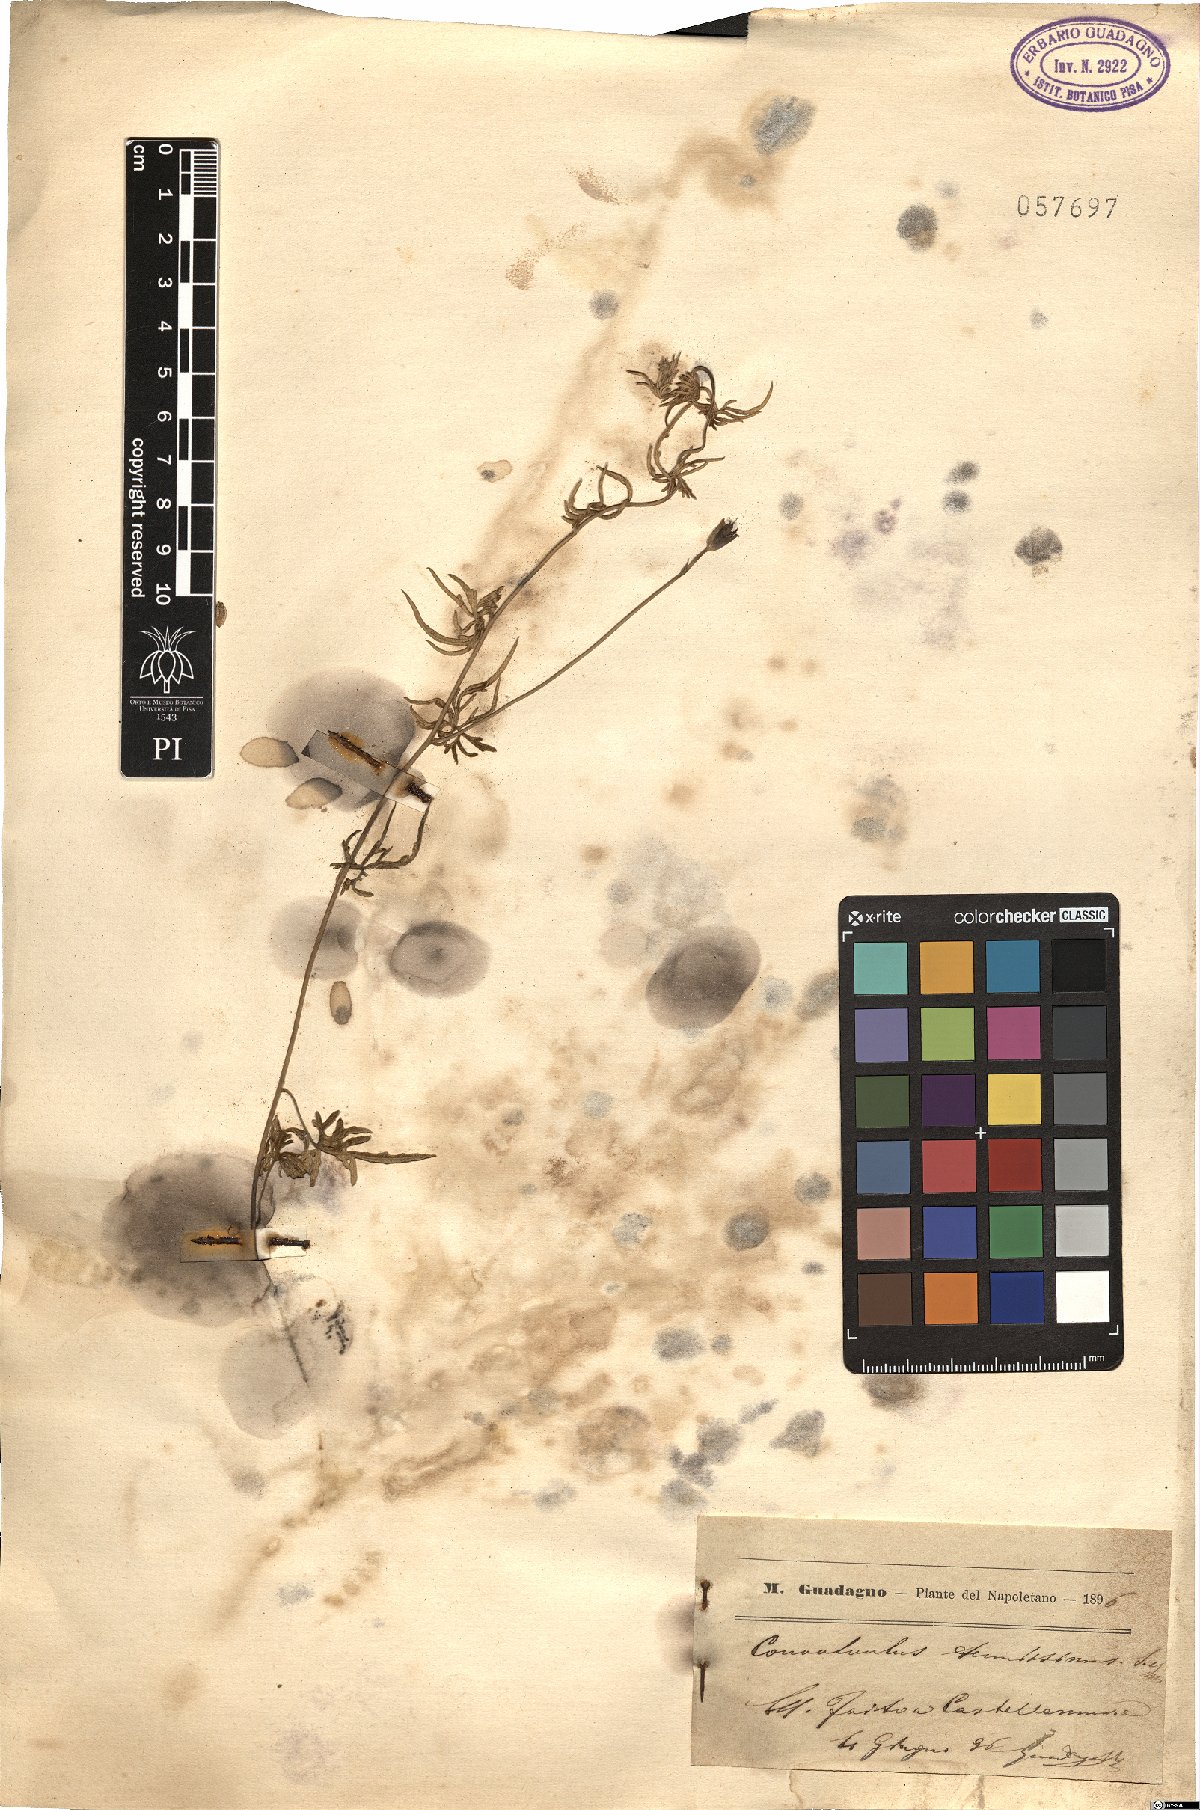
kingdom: Plantae
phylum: Tracheophyta
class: Magnoliopsida
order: Solanales
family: Convolvulaceae
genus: Convolvulus
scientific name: Convolvulus elegantissimus
